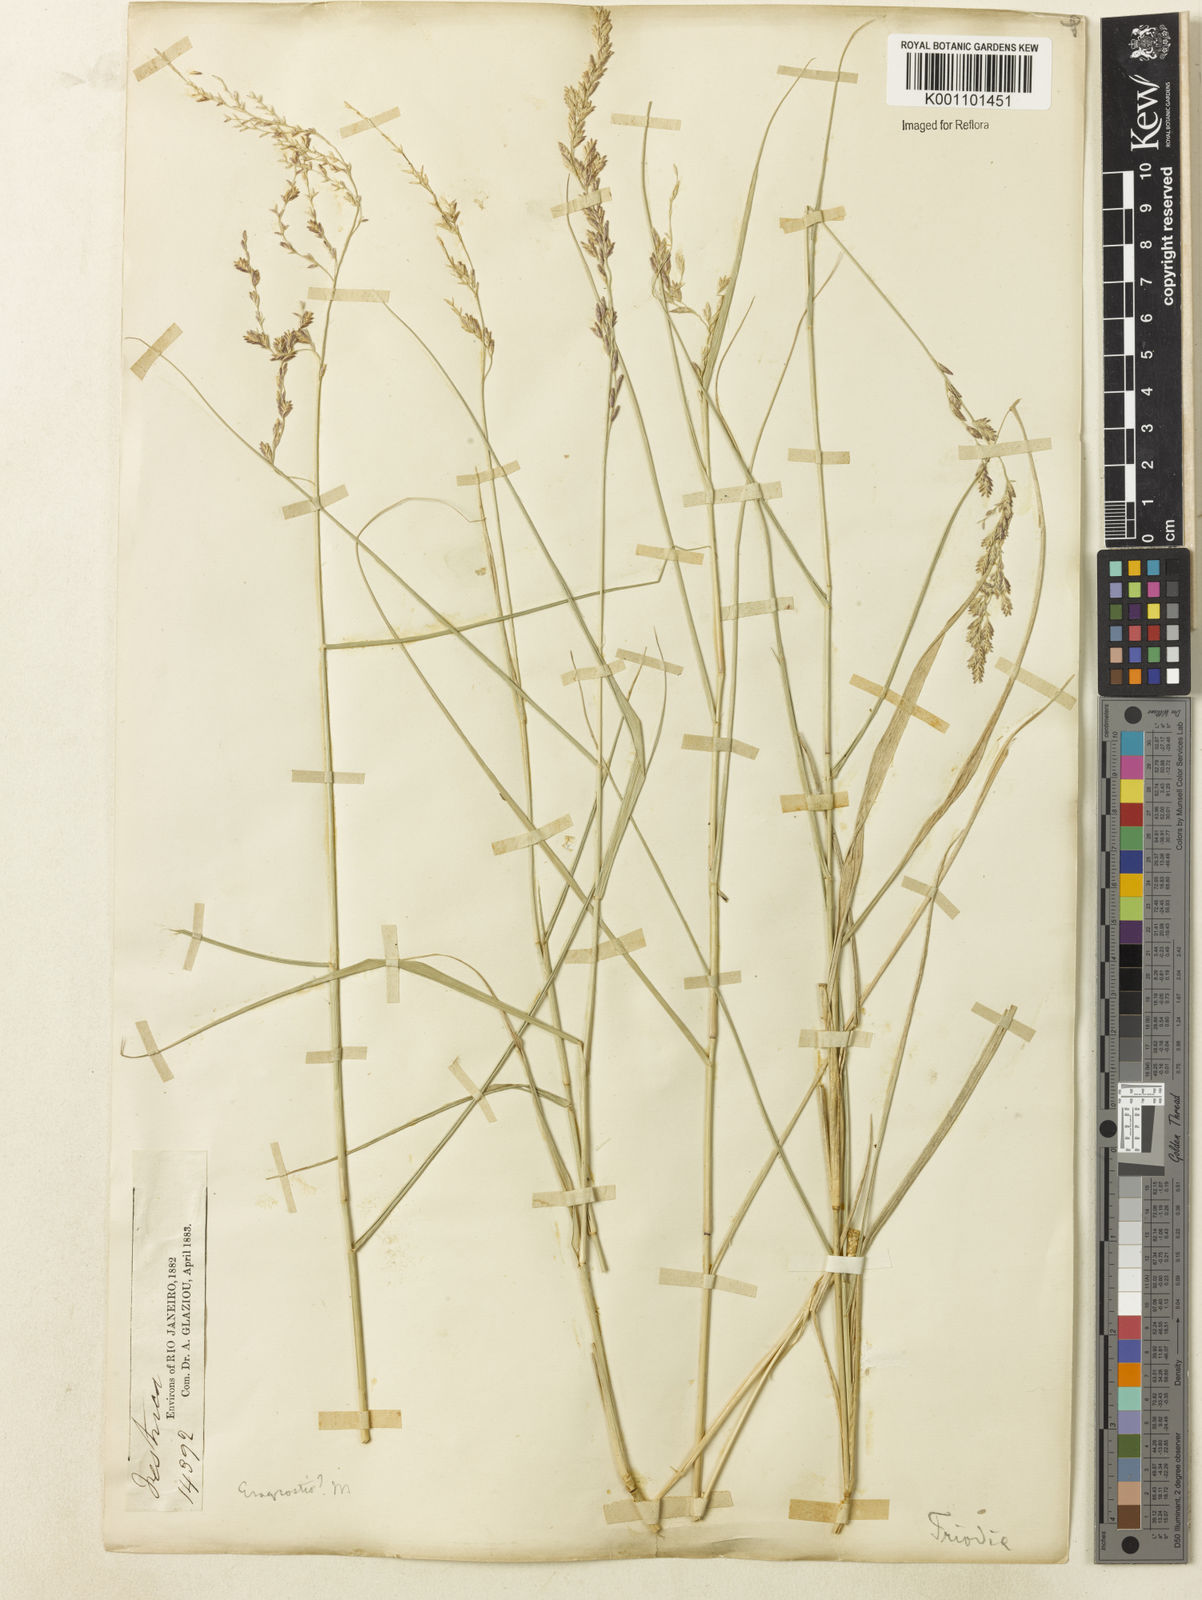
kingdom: Plantae
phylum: Tracheophyta
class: Liliopsida
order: Poales
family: Poaceae
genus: Tridens
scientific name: Tridens
